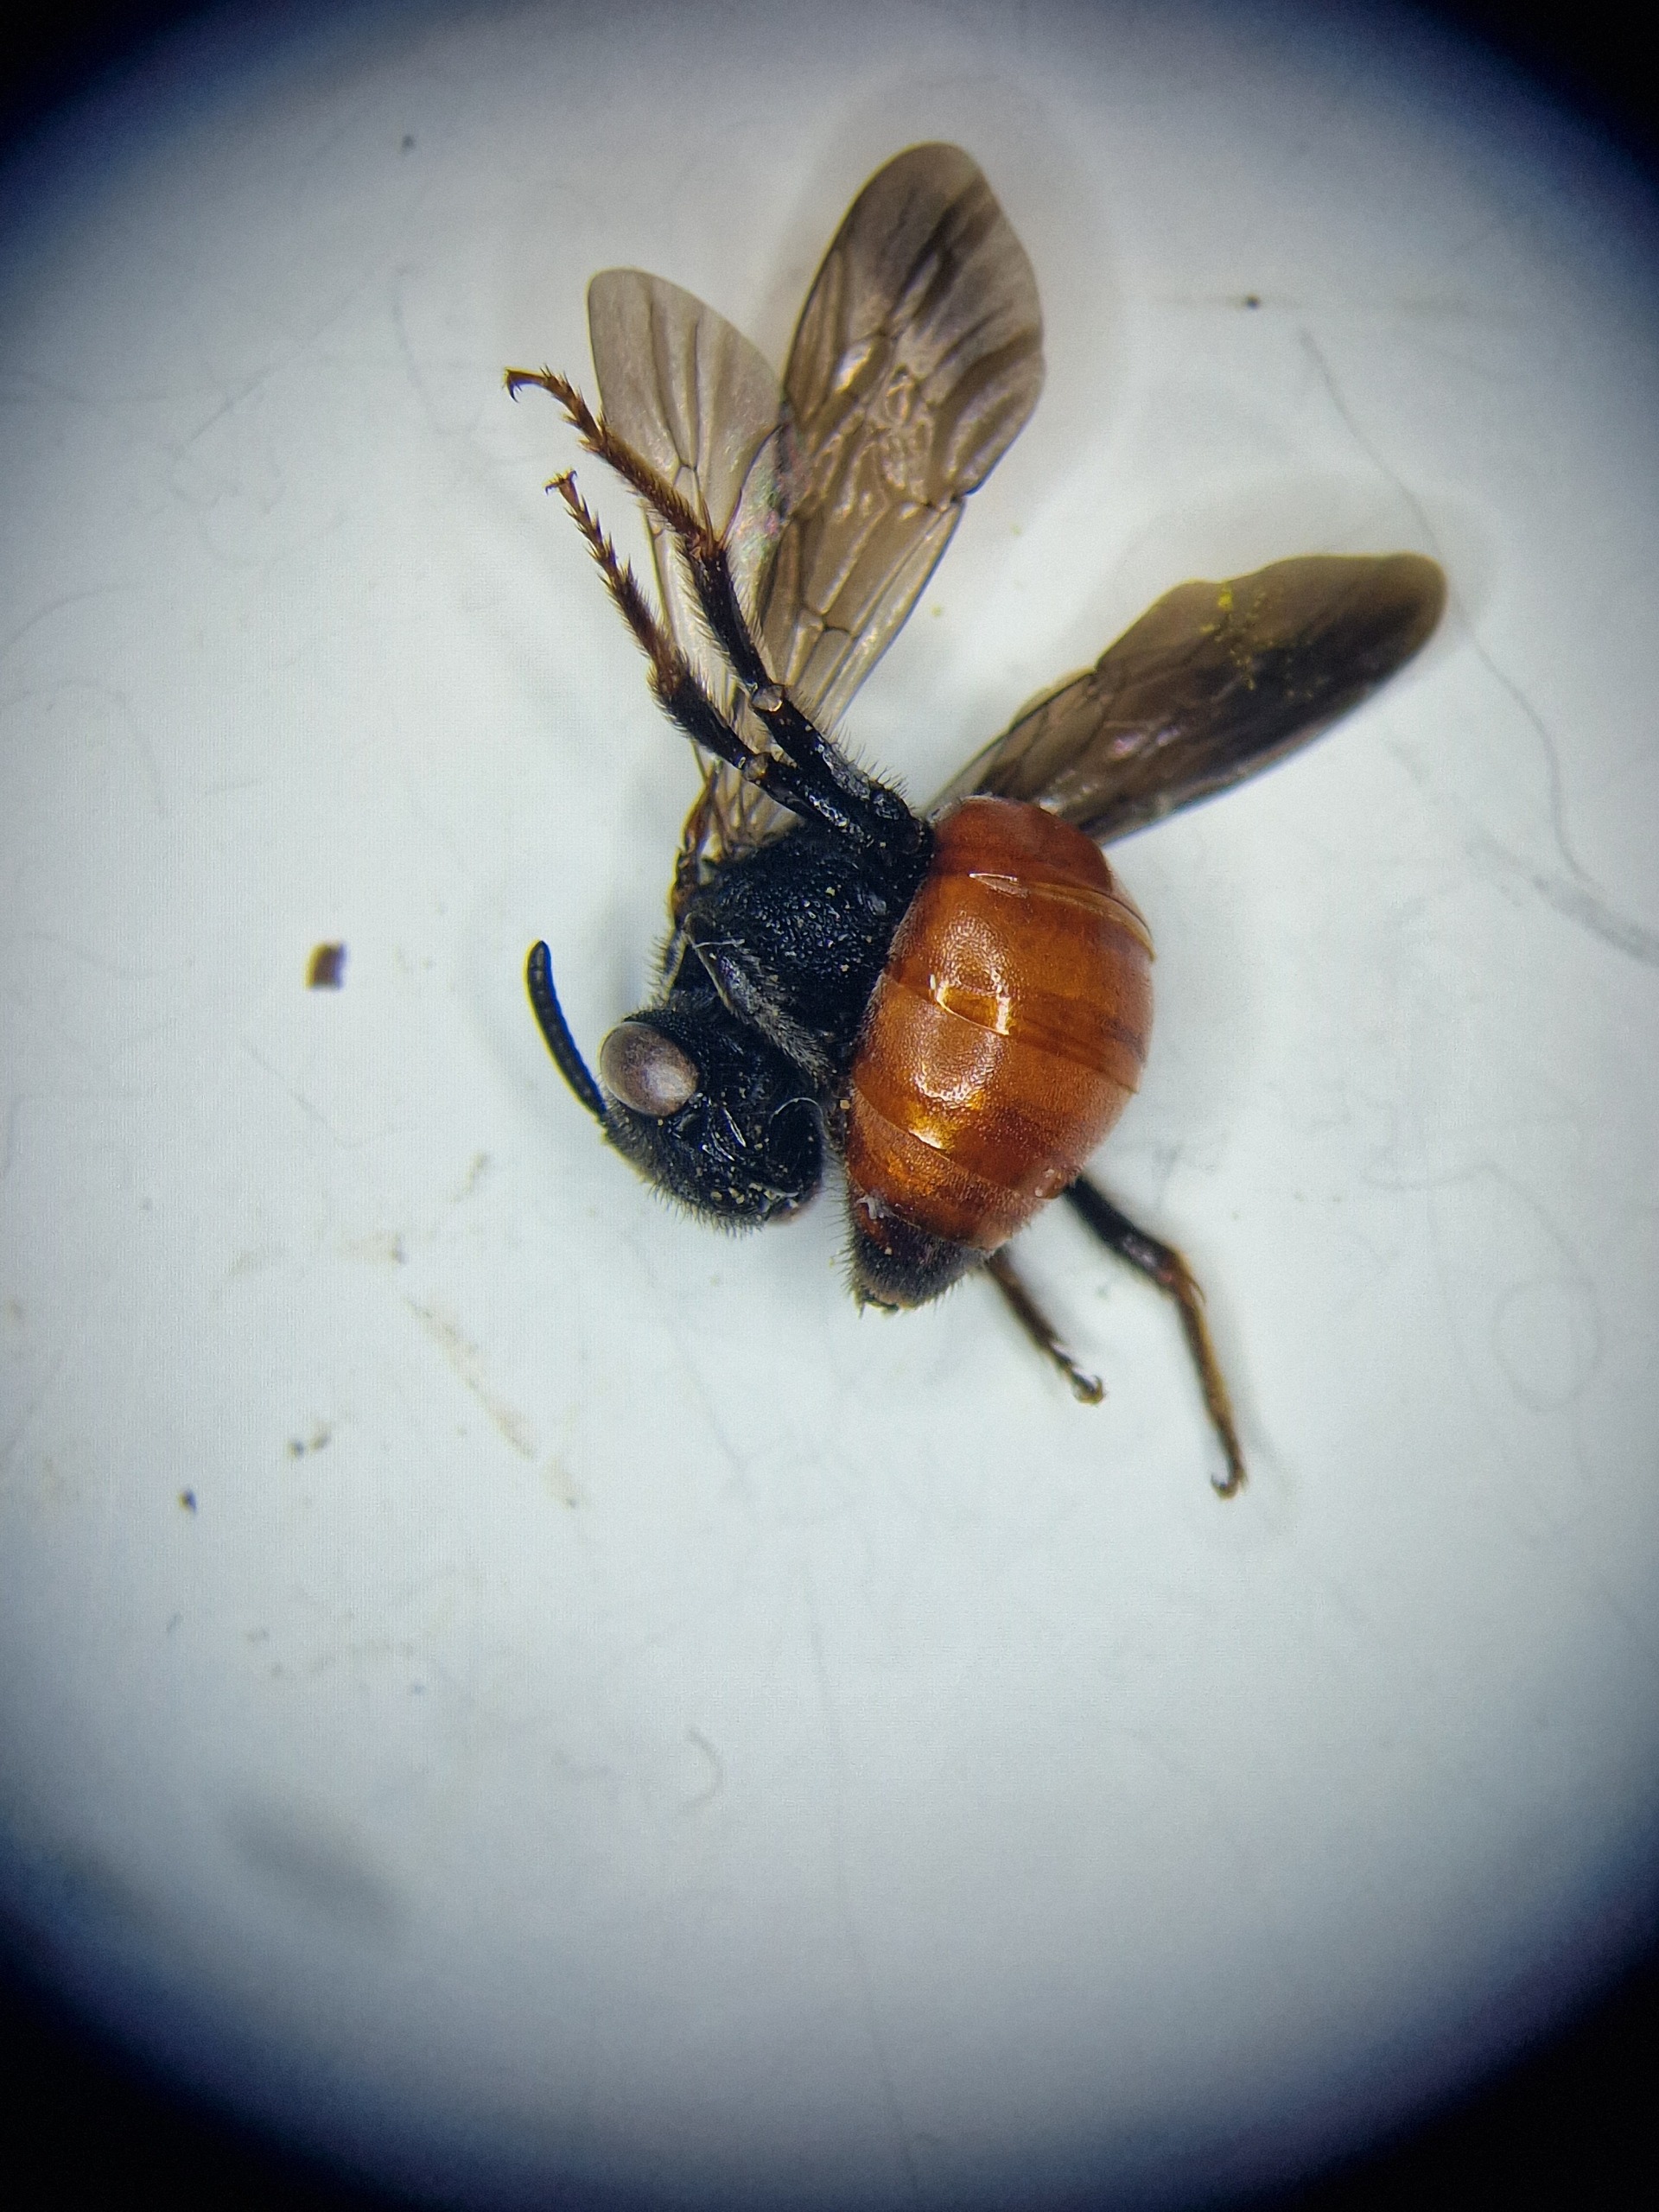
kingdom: Animalia
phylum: Arthropoda
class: Insecta
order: Hymenoptera
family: Halictidae
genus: Sphecodes
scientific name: Sphecodes albilabris
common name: Stor blodbi
